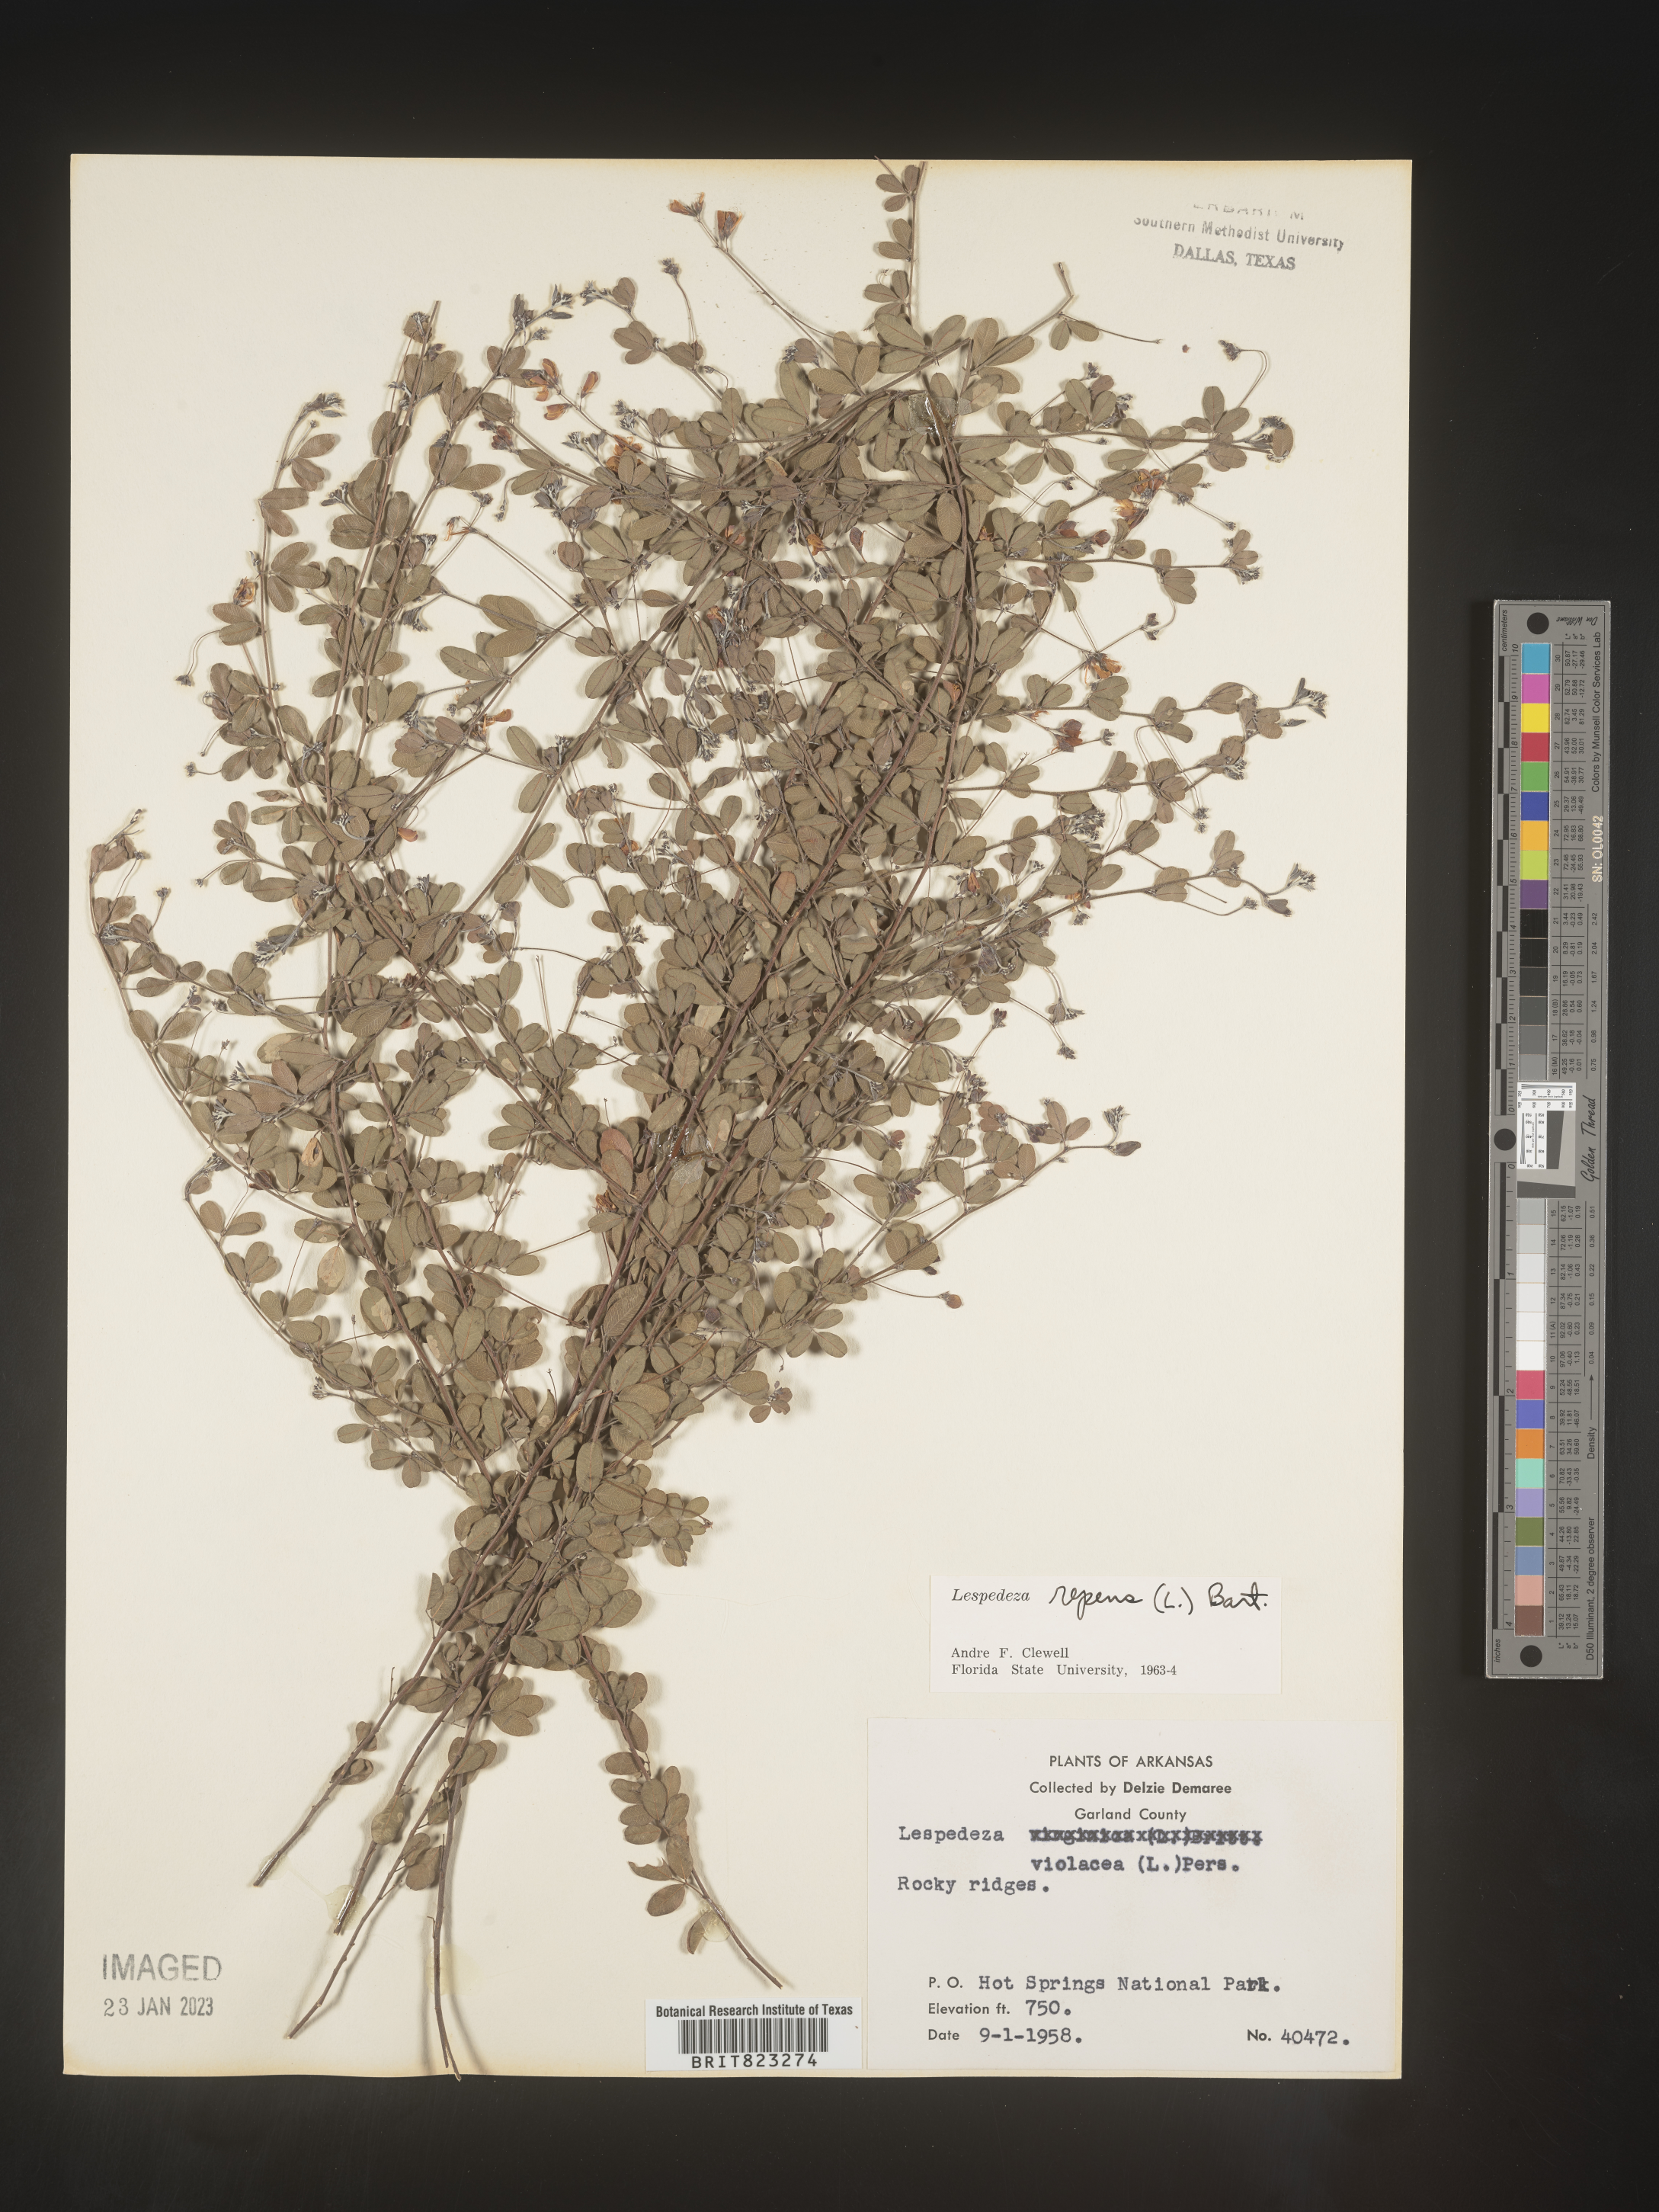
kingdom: Plantae
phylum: Tracheophyta
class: Magnoliopsida
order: Fabales
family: Fabaceae
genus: Lespedeza
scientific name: Lespedeza repens
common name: Creeping bush-clover
